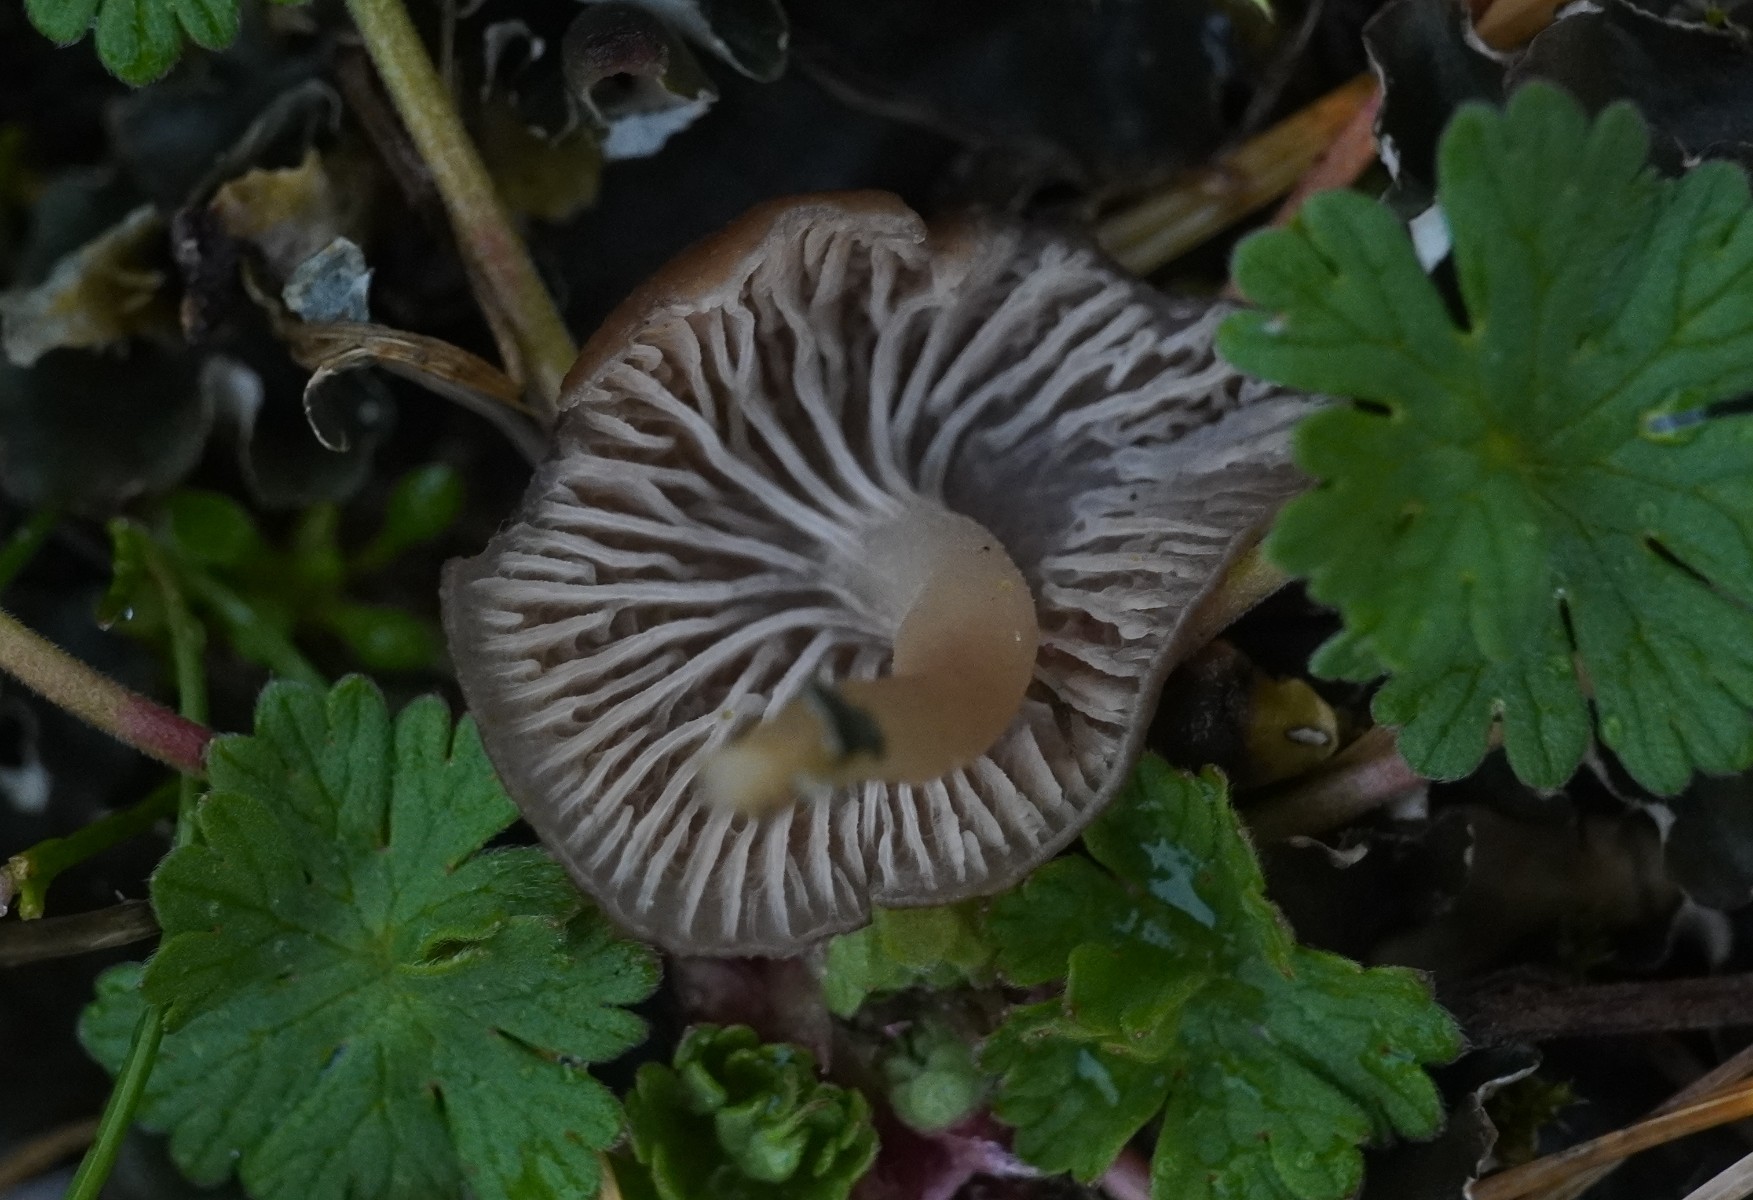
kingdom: Fungi
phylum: Basidiomycota
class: Agaricomycetes
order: Agaricales
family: Tricholomataceae
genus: Gamundia
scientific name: Gamundia xerophila
